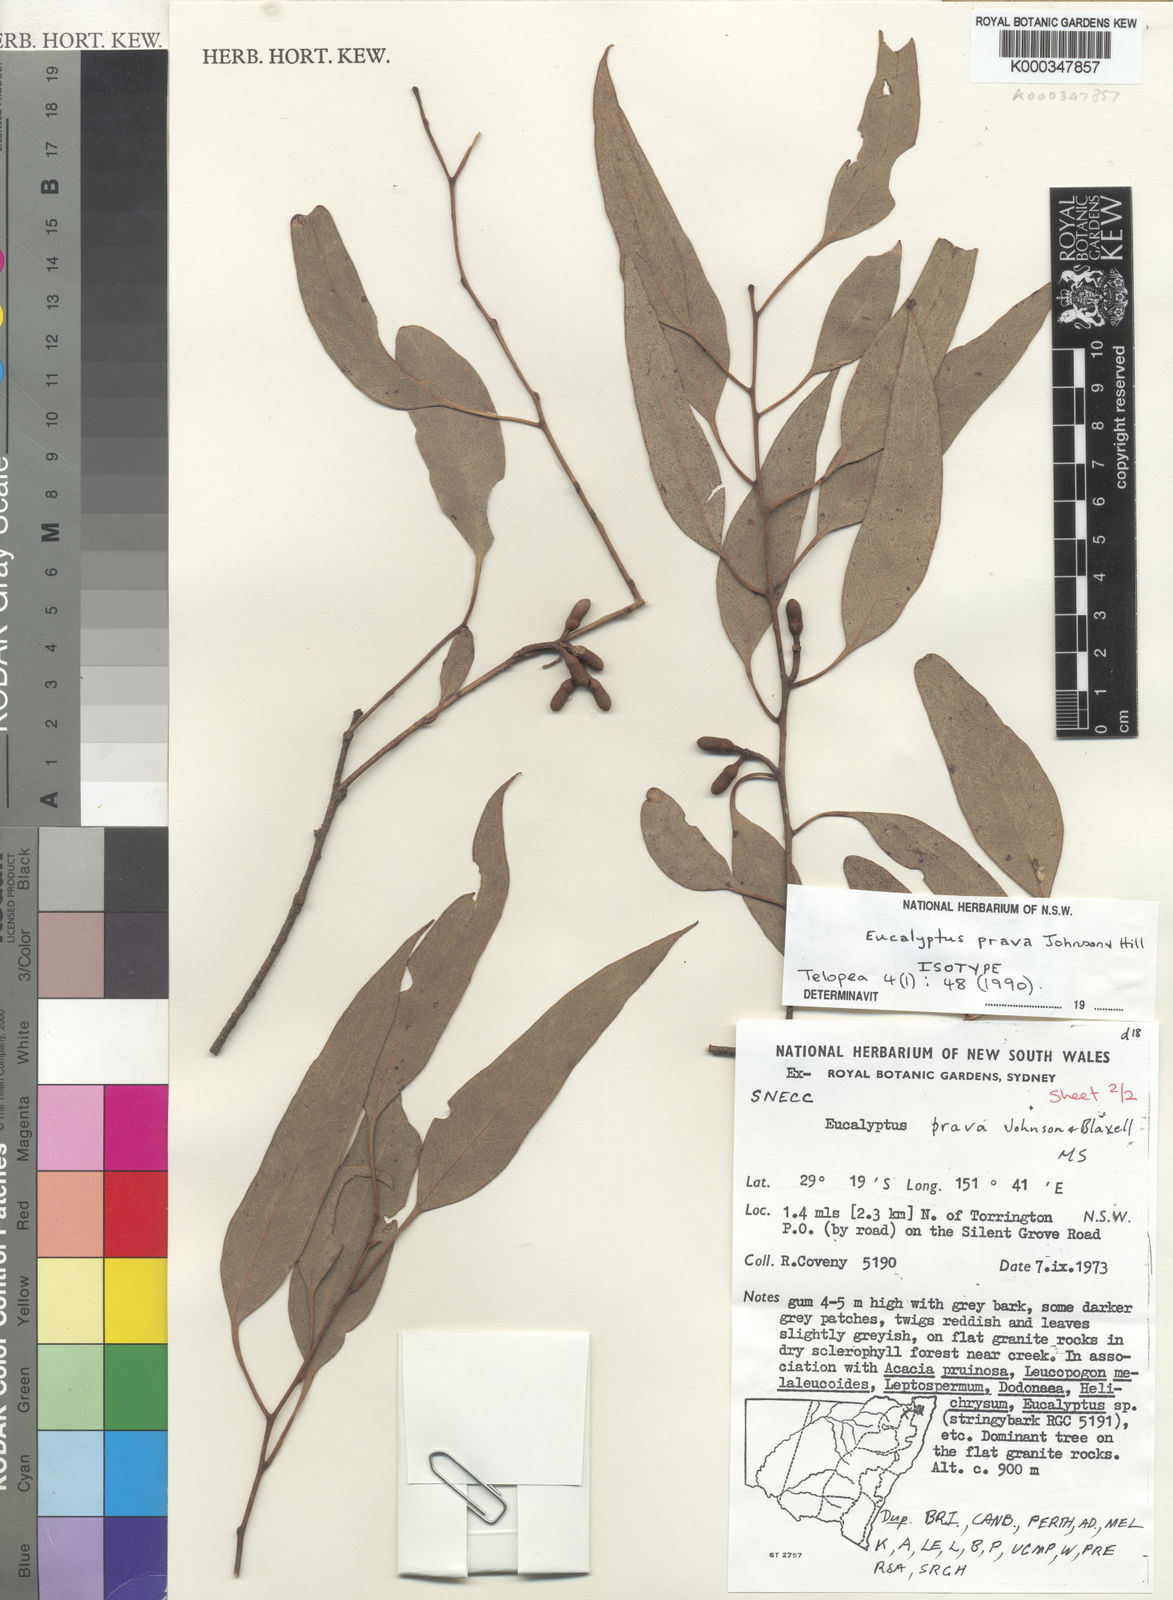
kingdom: Plantae
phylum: Tracheophyta
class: Magnoliopsida
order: Myrtales
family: Myrtaceae
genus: Eucalyptus
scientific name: Eucalyptus prava
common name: Orange gum
